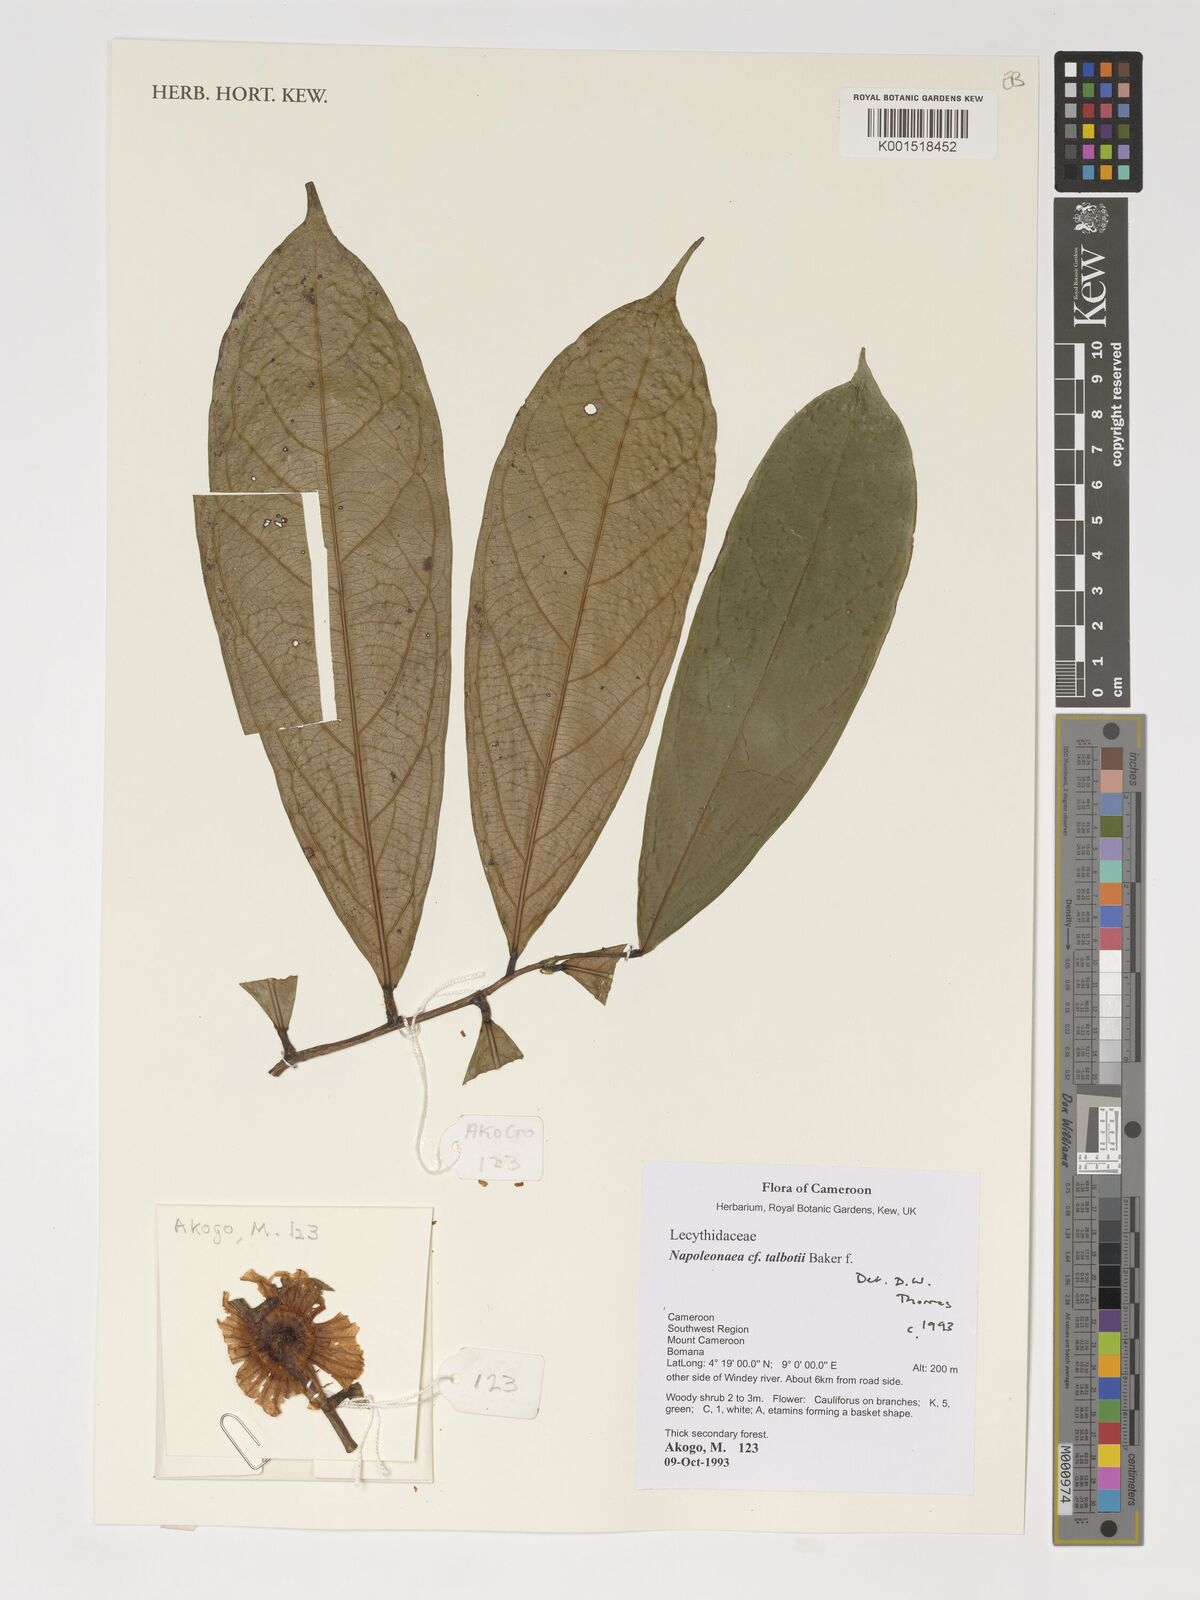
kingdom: Plantae
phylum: Tracheophyta
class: Magnoliopsida
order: Ericales
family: Lecythidaceae
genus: Napoleonaea
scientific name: Napoleonaea talbotii
